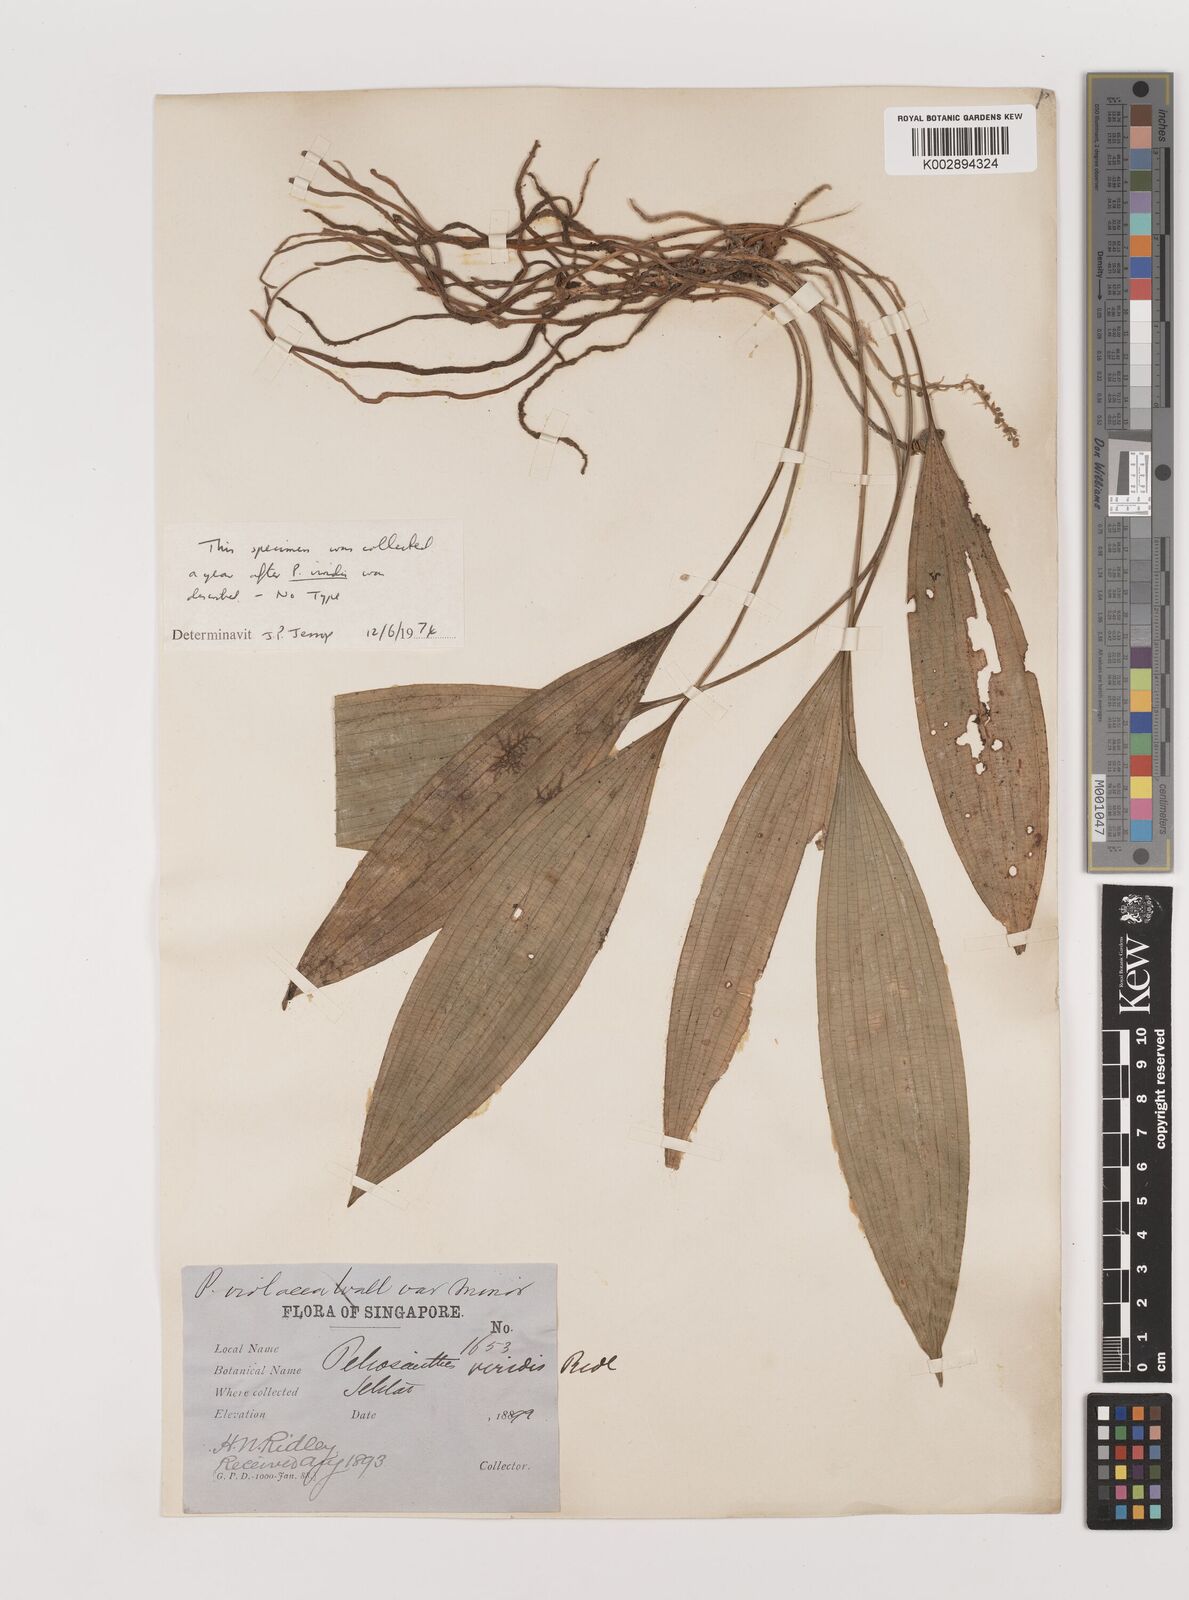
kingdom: Plantae
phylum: Tracheophyta
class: Liliopsida
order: Asparagales
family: Asparagaceae
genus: Peliosanthes
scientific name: Peliosanthes teta
